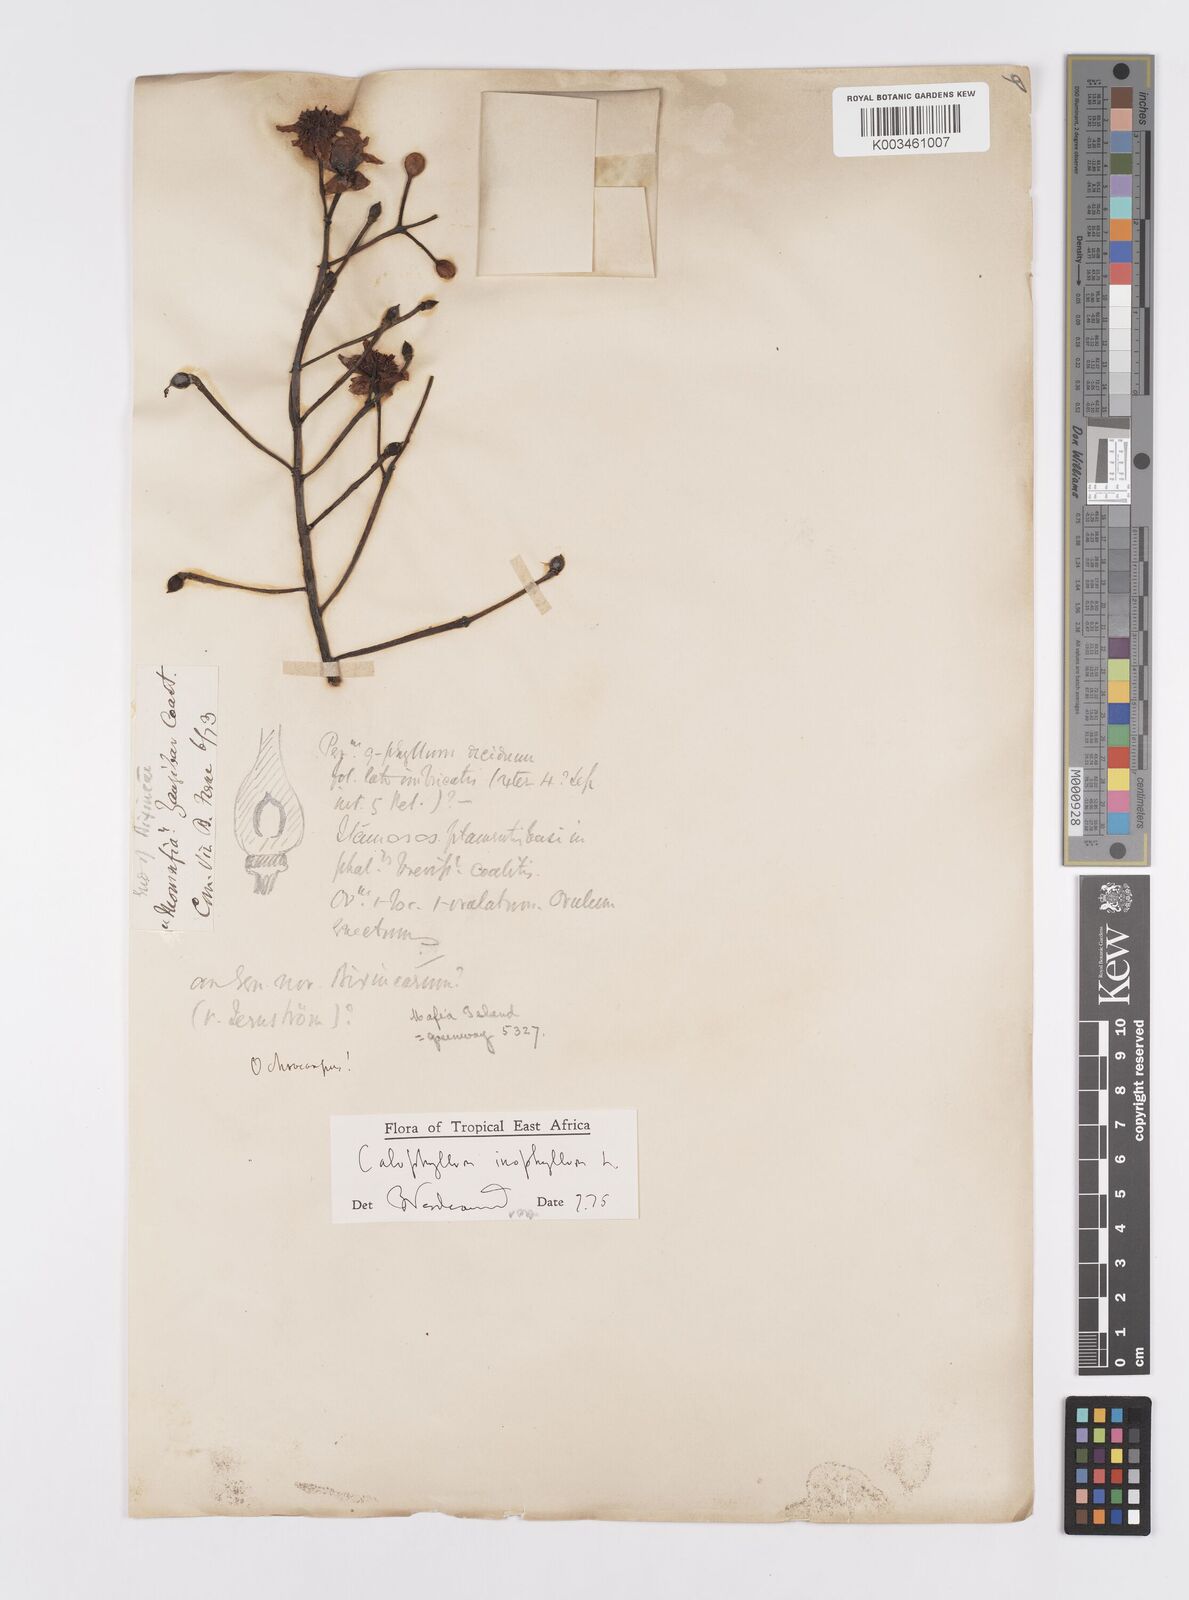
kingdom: Plantae
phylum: Tracheophyta
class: Magnoliopsida
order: Malpighiales
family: Calophyllaceae
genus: Calophyllum
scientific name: Calophyllum inophyllum
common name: Alexandrian laurel
